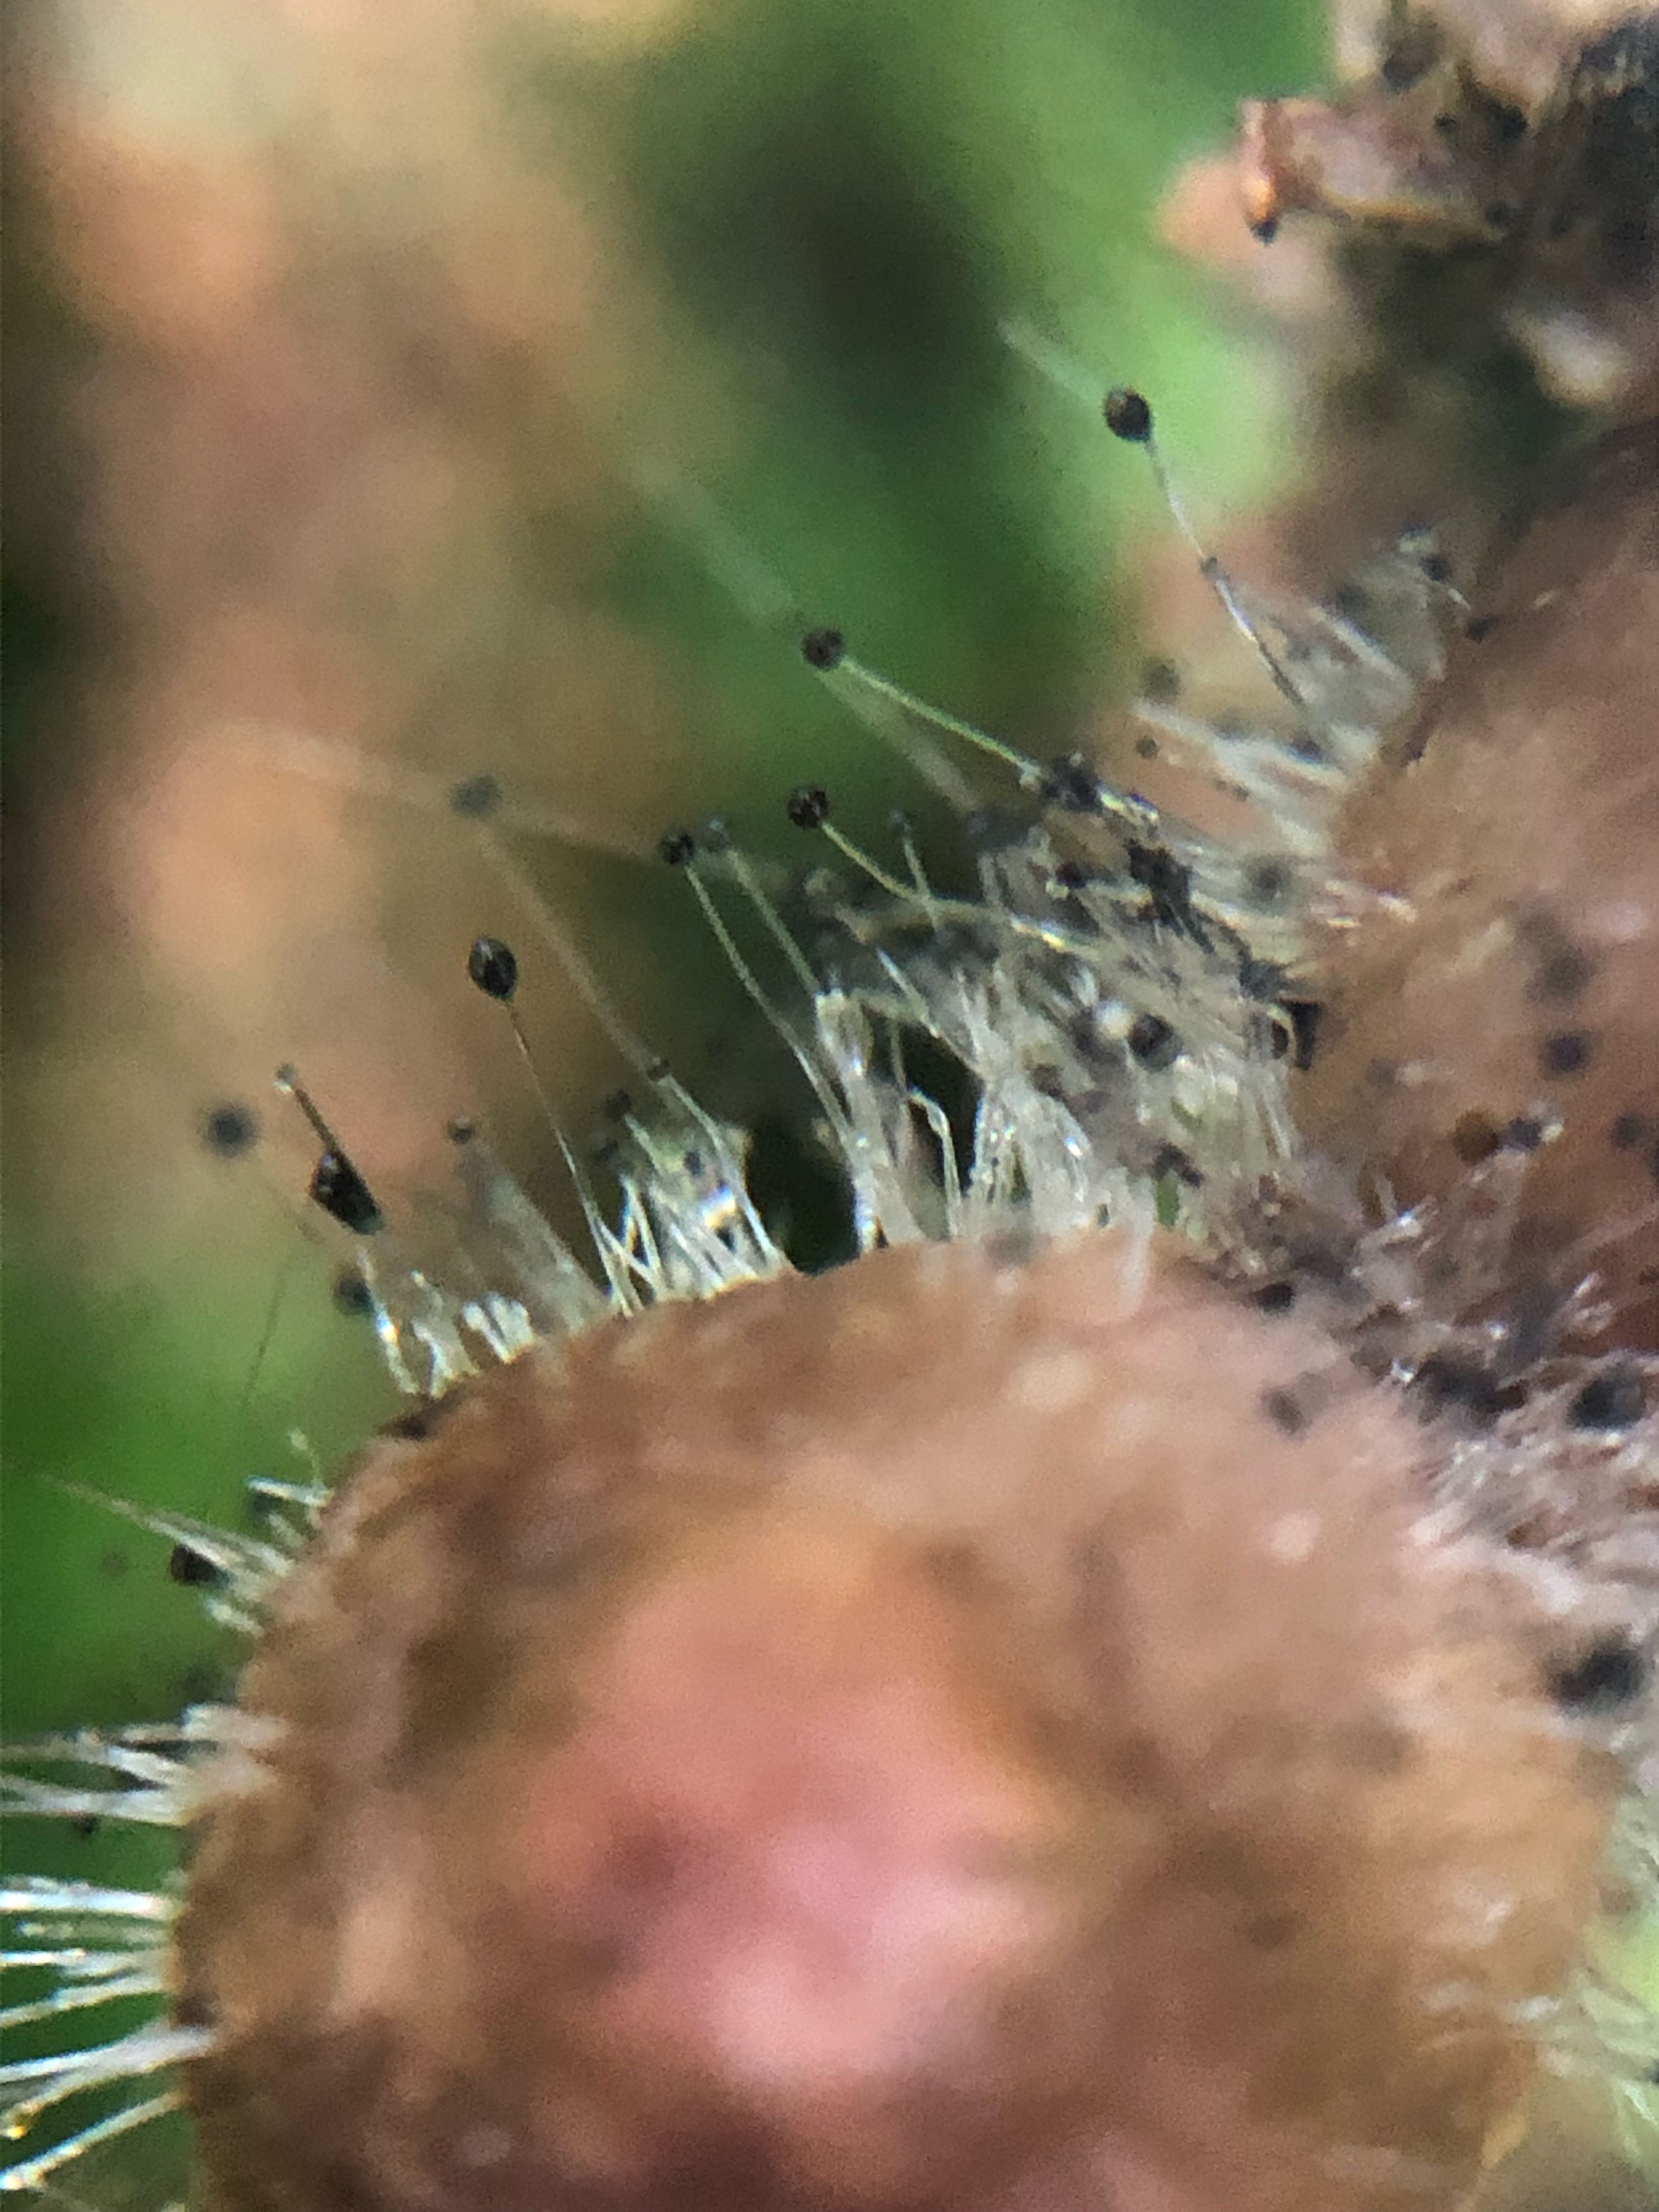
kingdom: Fungi
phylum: Mucoromycota
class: Mucoromycetes
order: Mucorales
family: Phycomycetaceae
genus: Spinellus
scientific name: Spinellus fusiger
